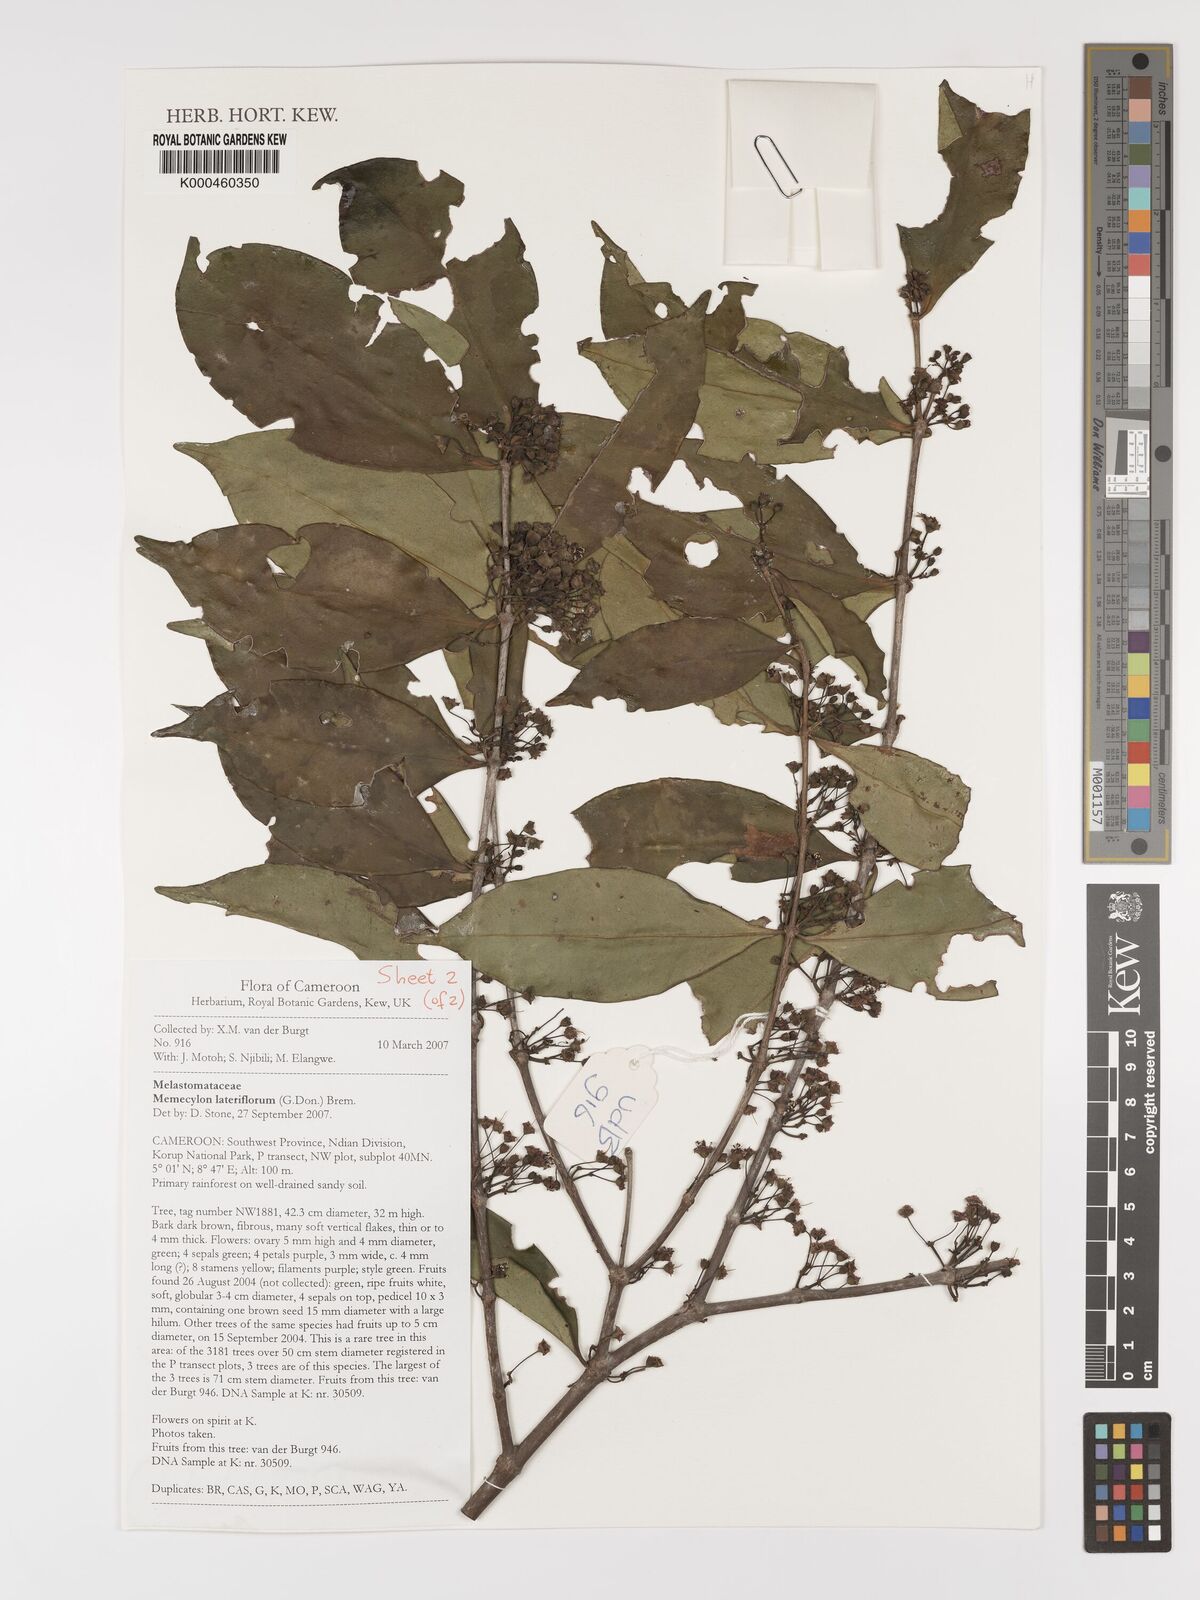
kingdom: Plantae
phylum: Tracheophyta
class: Magnoliopsida
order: Myrtales
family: Melastomataceae
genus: Memecylon
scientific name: Memecylon lateriflorum
